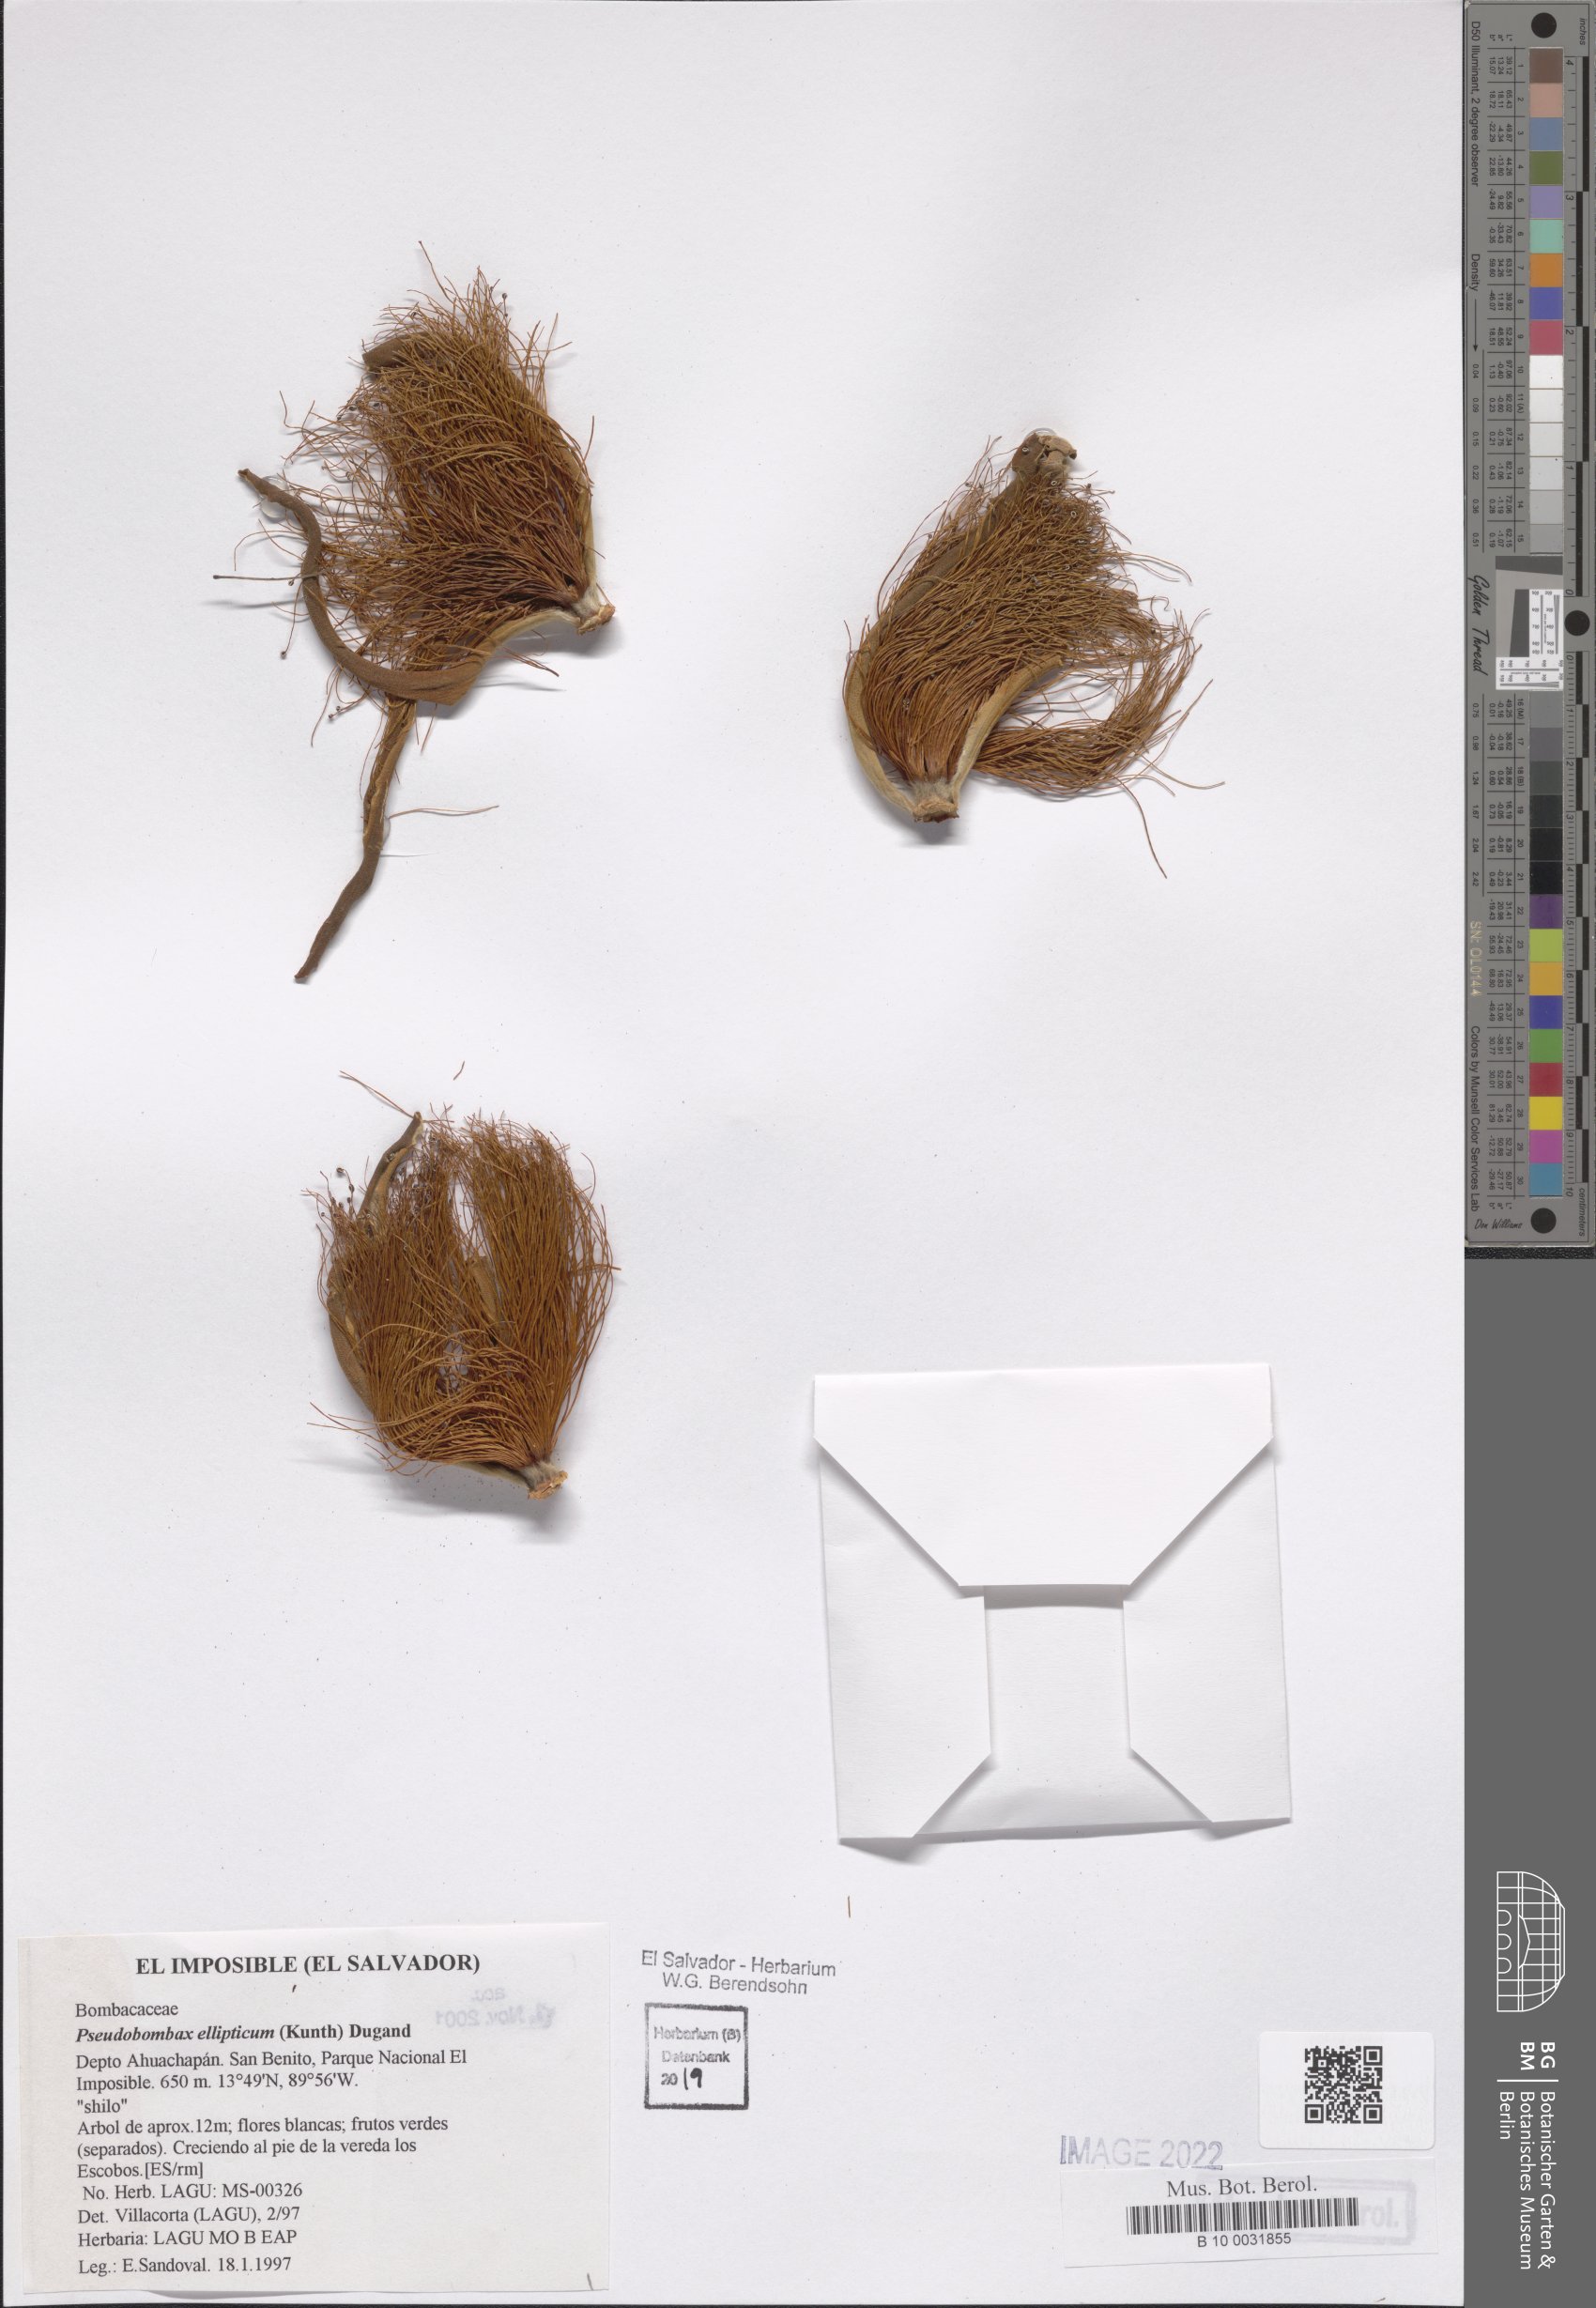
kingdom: Plantae
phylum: Tracheophyta
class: Magnoliopsida
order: Malvales
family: Malvaceae
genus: Pseudobombax
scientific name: Pseudobombax ellipticum
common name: Shaving-brush-tree
